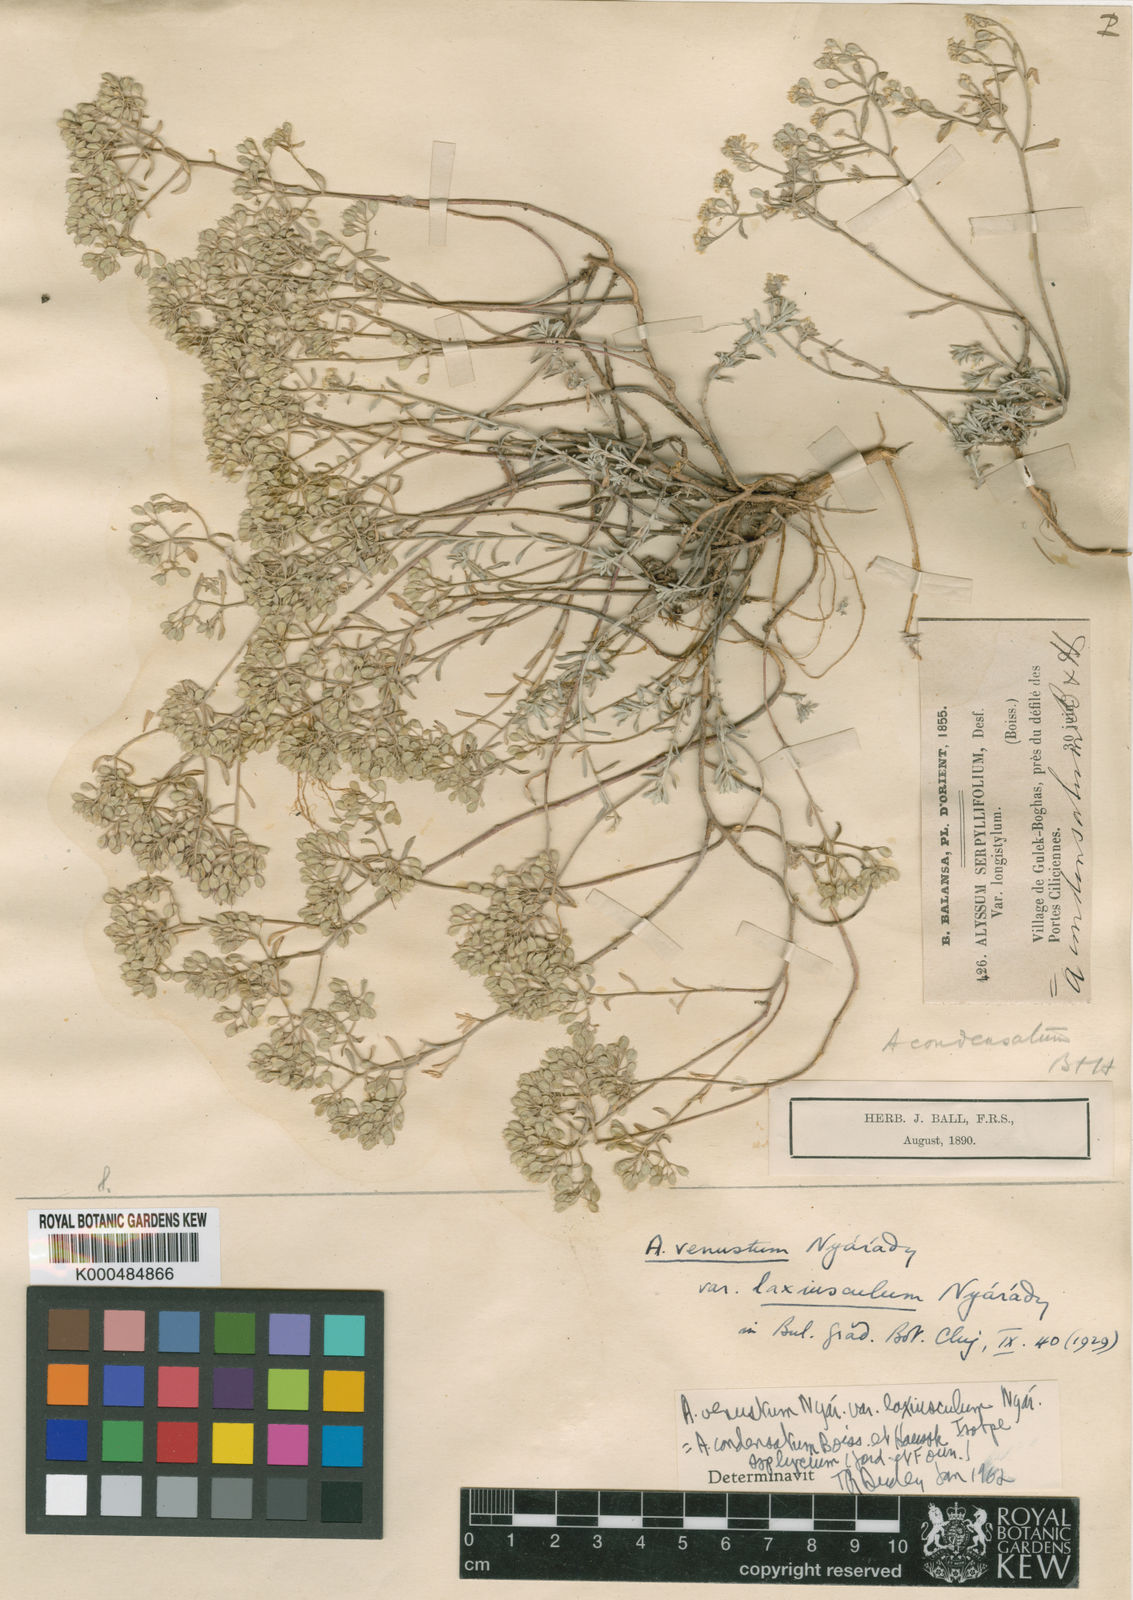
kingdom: Plantae
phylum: Tracheophyta
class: Magnoliopsida
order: Brassicales
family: Brassicaceae
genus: Odontarrhena
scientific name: Odontarrhena condensata
